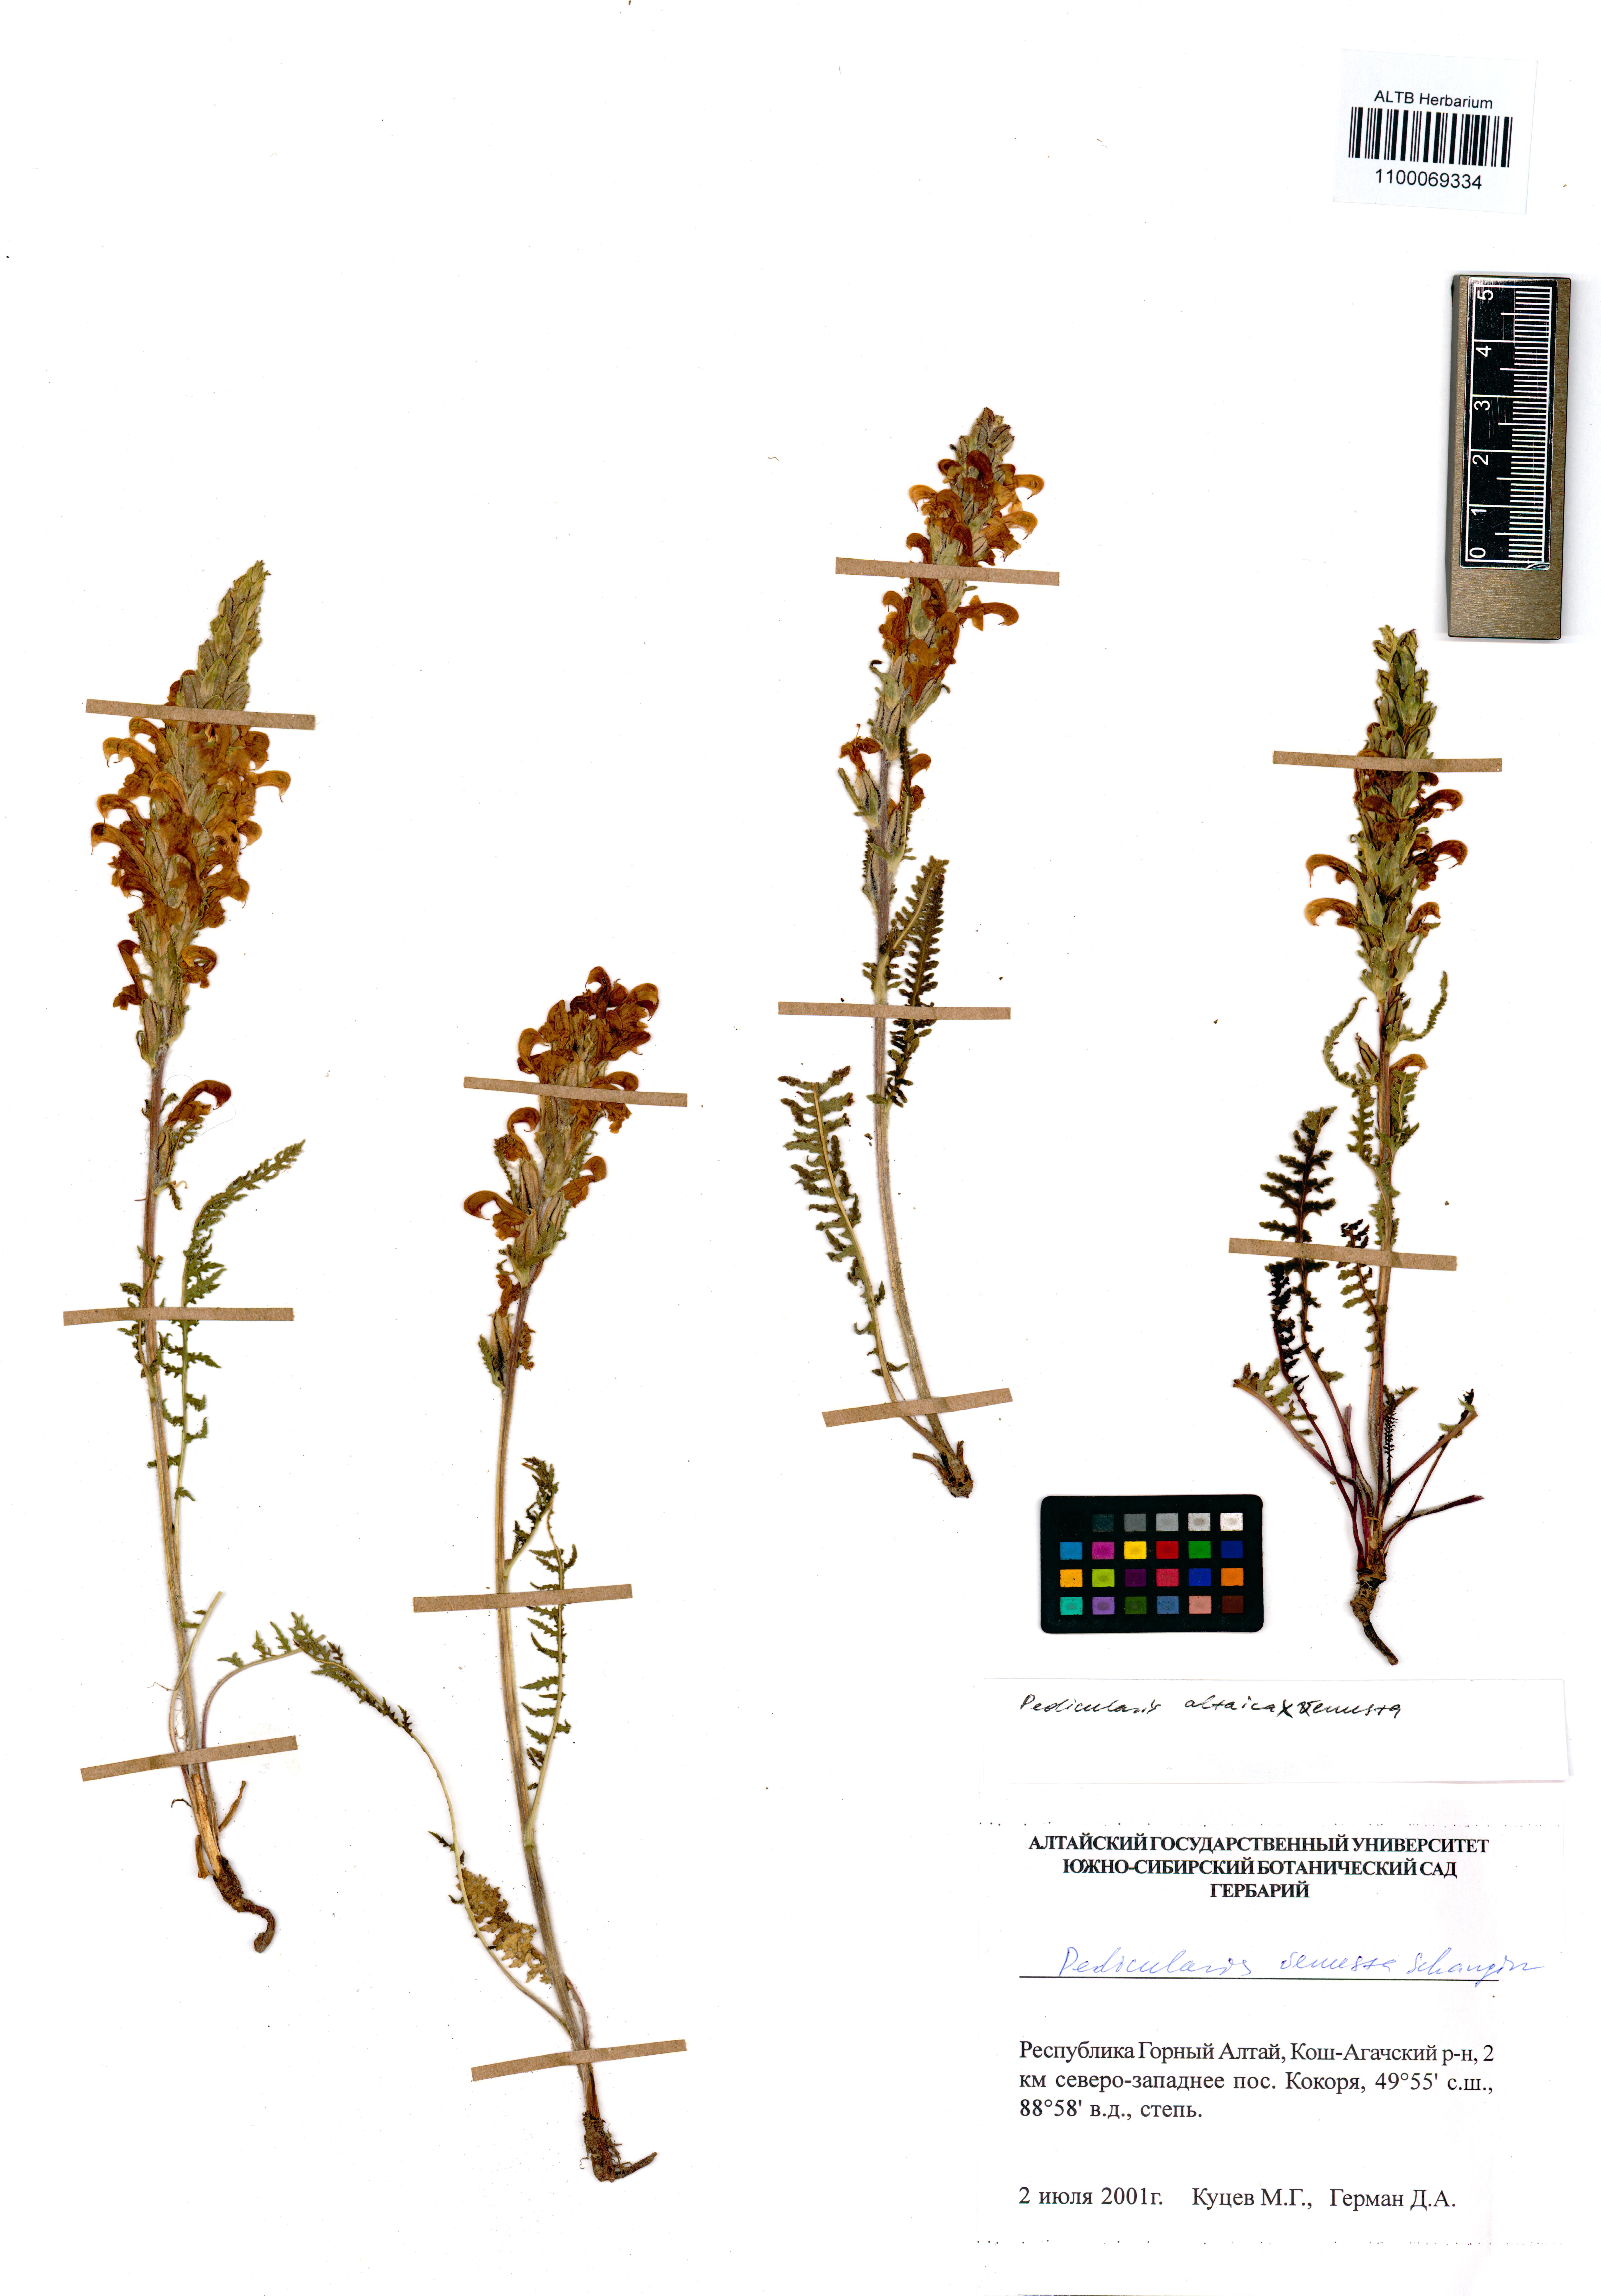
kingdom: Plantae
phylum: Tracheophyta
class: Magnoliopsida
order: Lamiales
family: Orobanchaceae
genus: Pedicularis
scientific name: Pedicularis venusta
